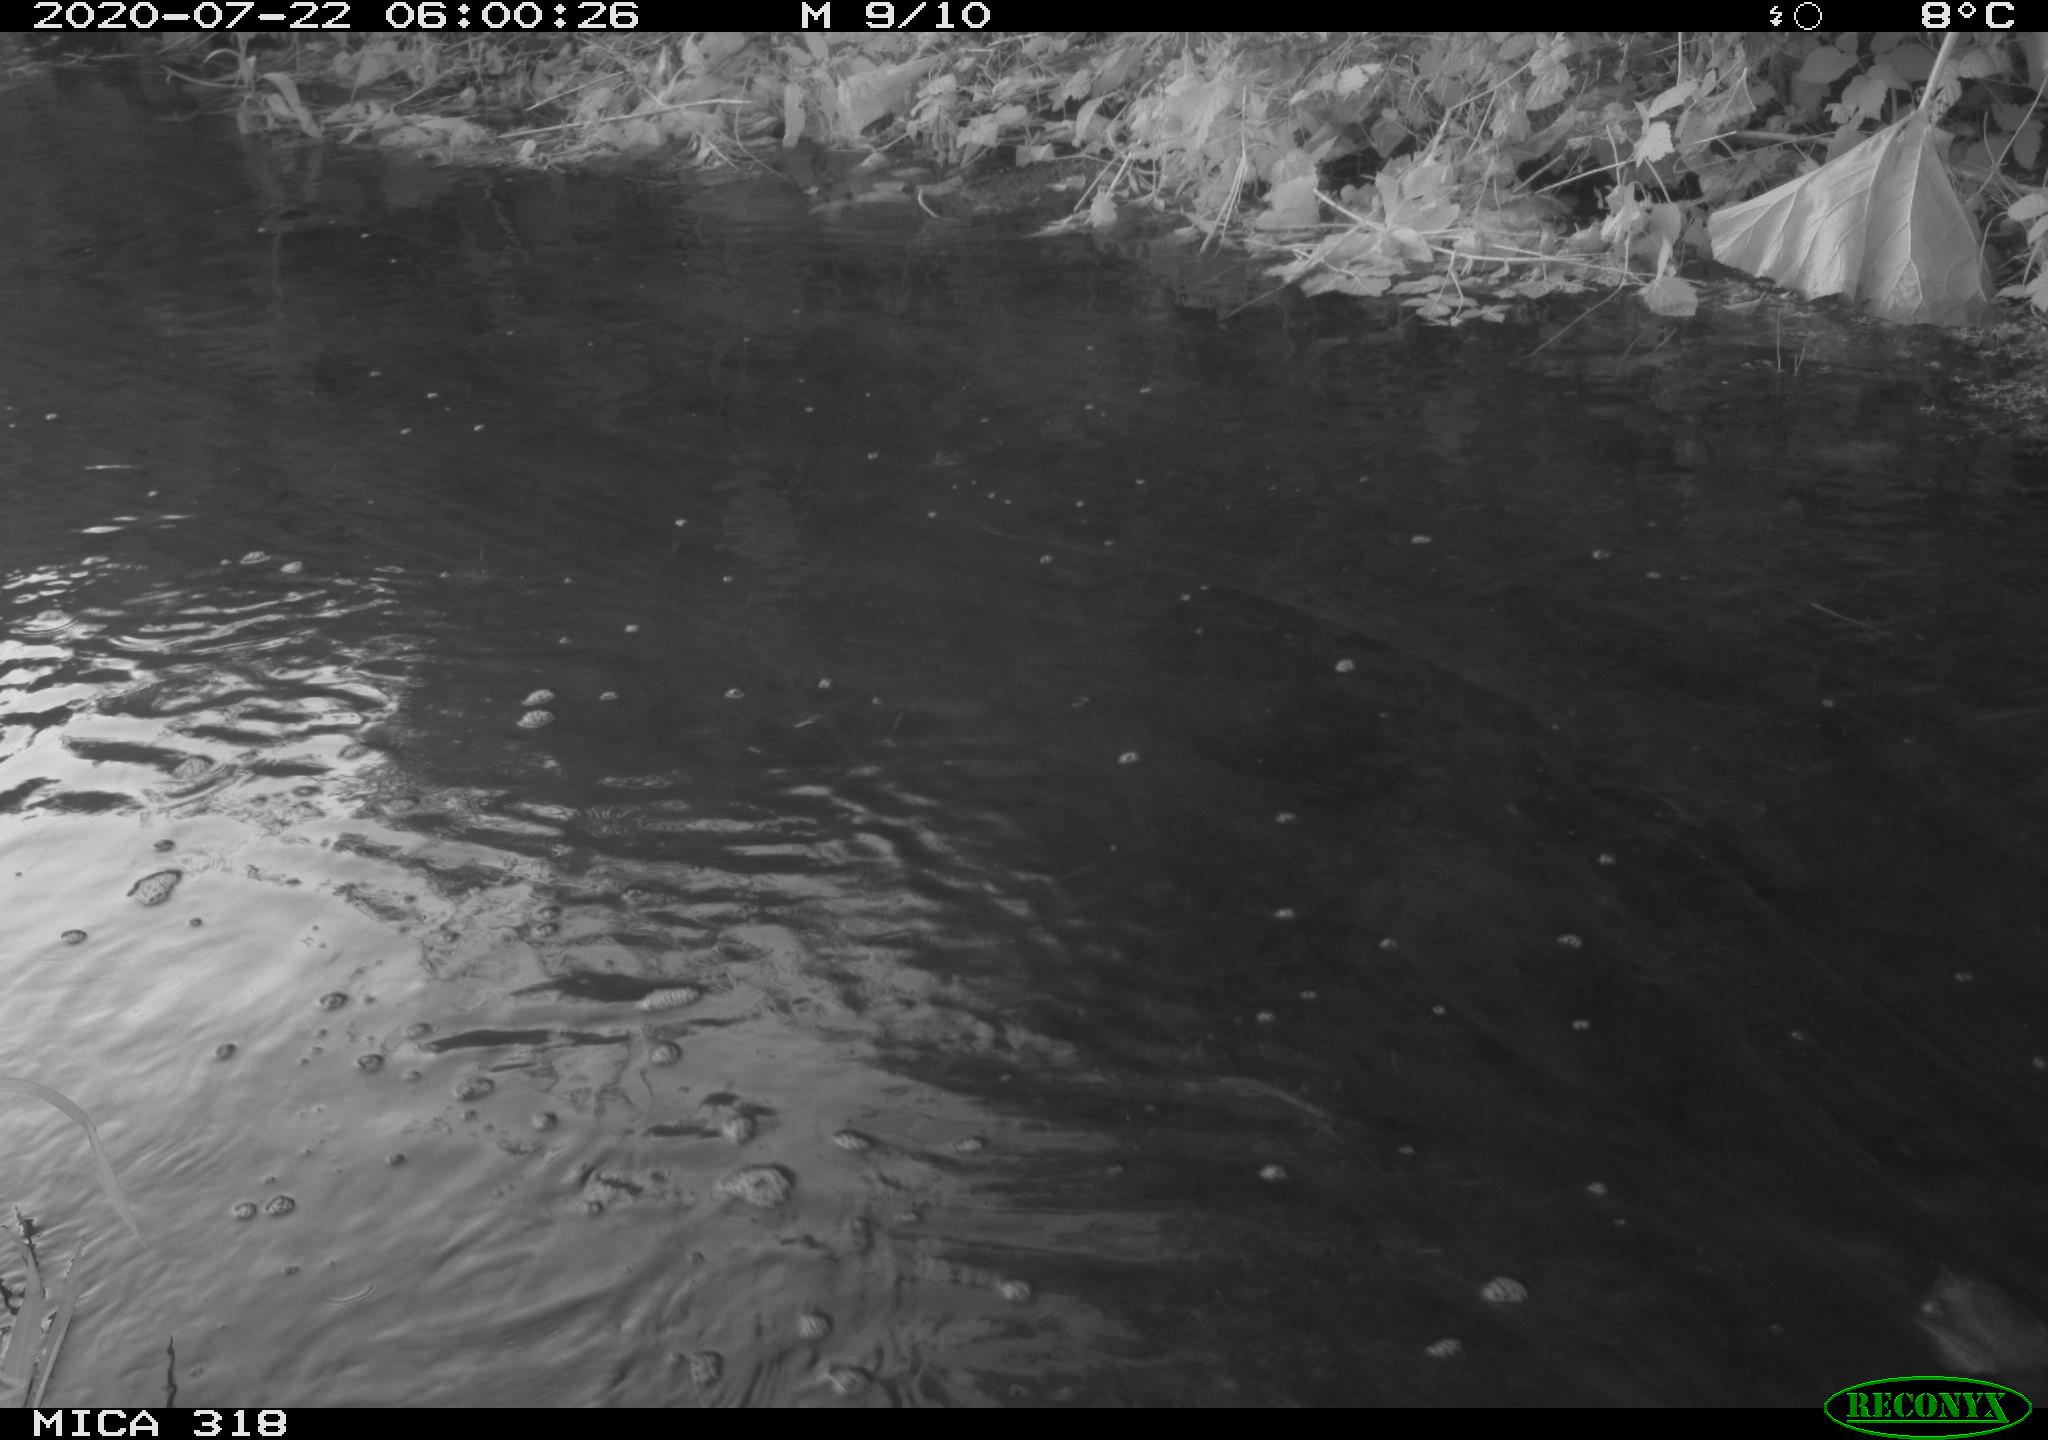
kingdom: Animalia
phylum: Chordata
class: Aves
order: Gruiformes
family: Rallidae
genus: Gallinula
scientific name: Gallinula chloropus
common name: Common moorhen
